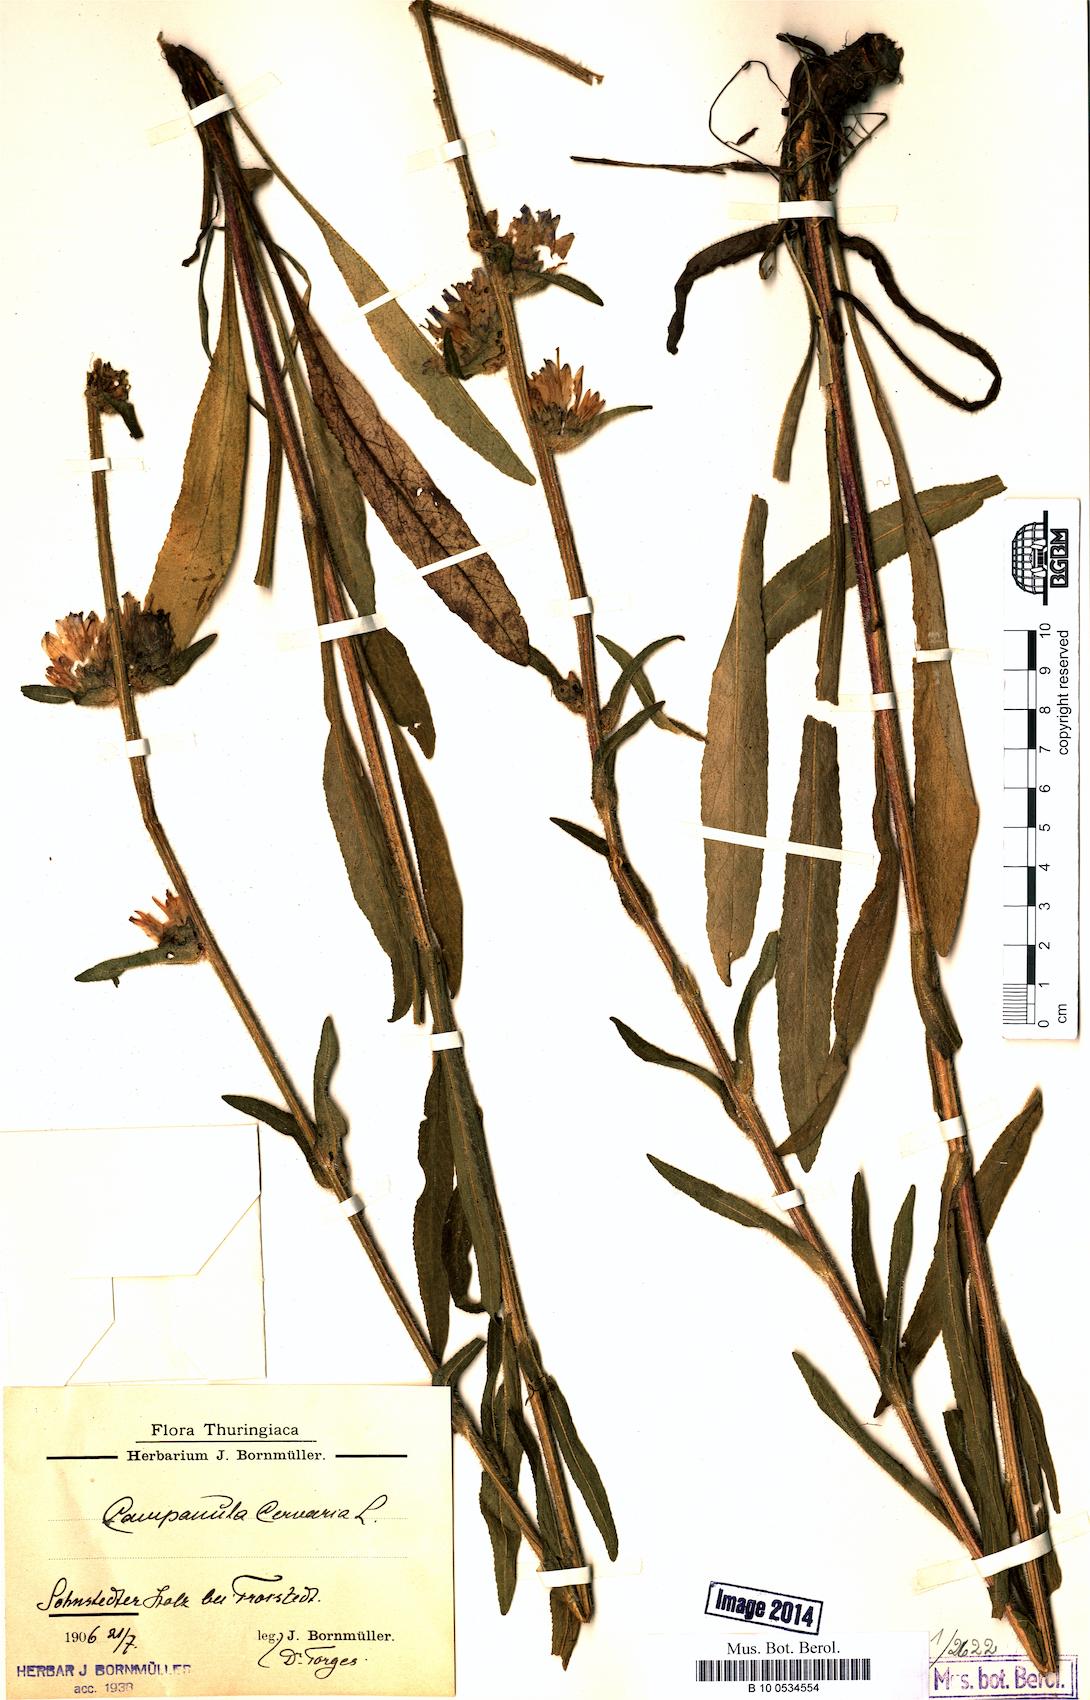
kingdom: Plantae
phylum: Tracheophyta
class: Magnoliopsida
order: Asterales
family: Campanulaceae
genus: Campanula
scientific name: Campanula cervicaria
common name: Bristly bellflower
